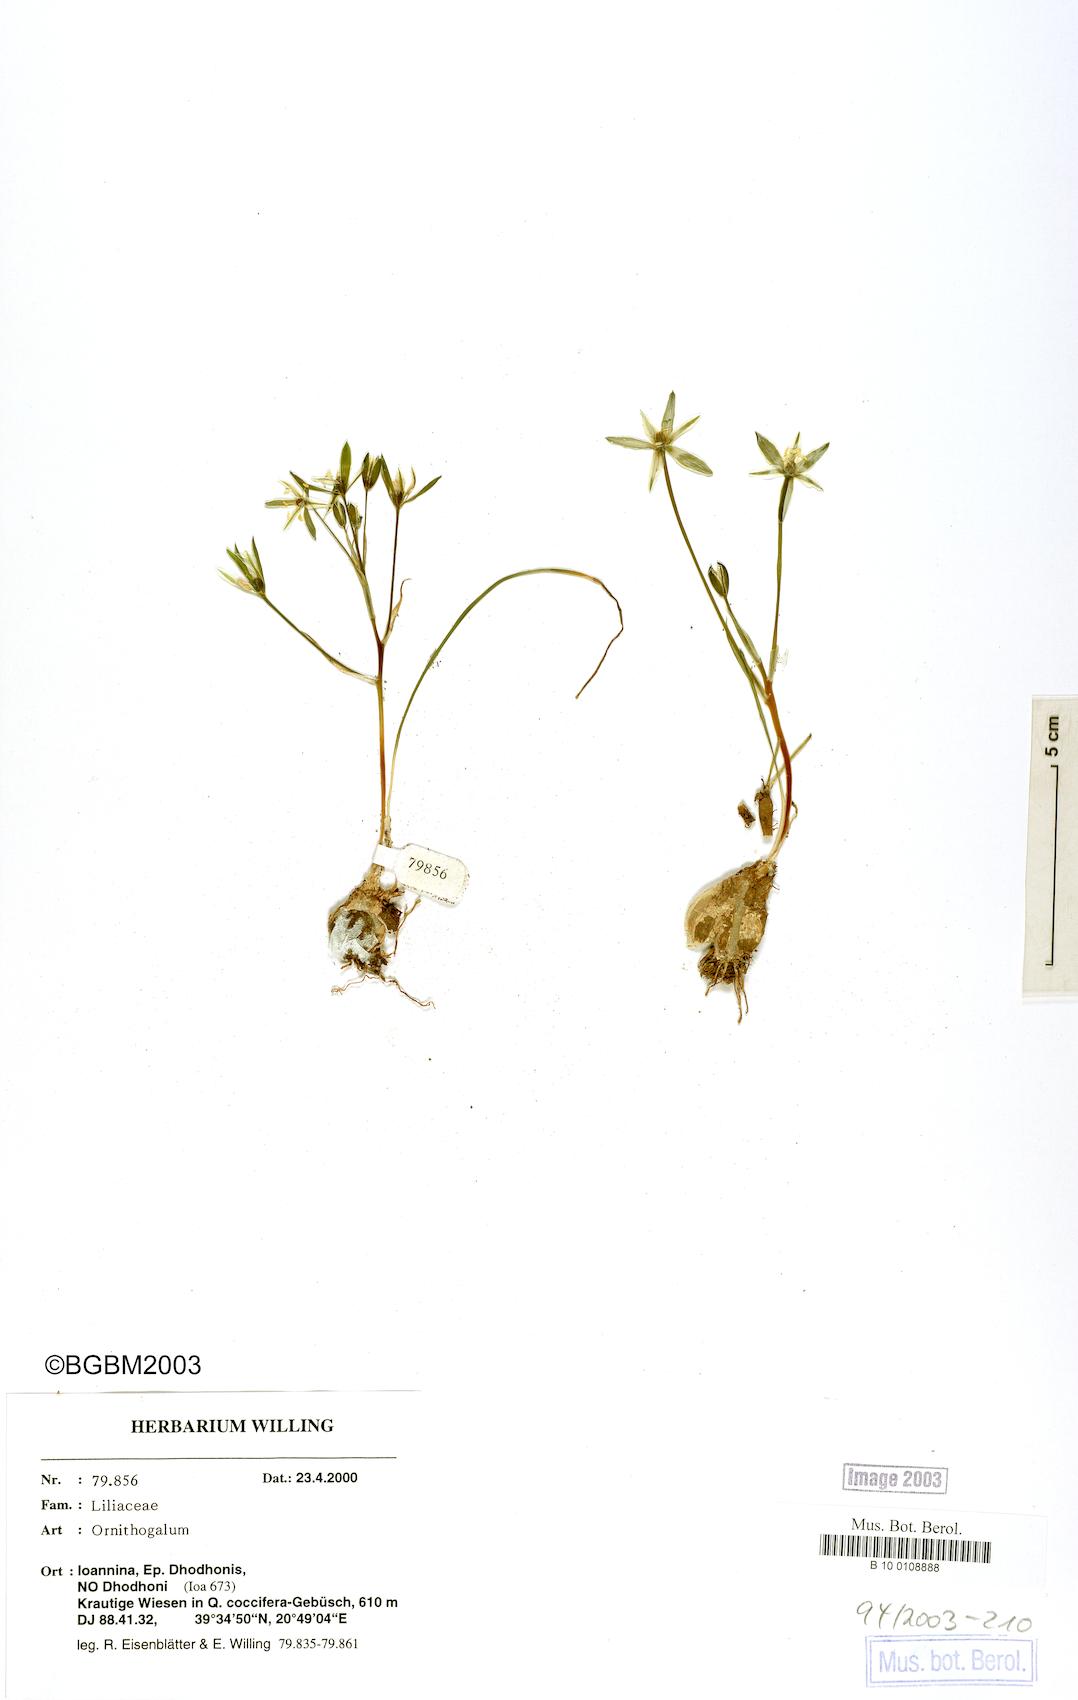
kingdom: Plantae
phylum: Tracheophyta
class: Liliopsida
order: Asparagales
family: Asparagaceae
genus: Ornithogalum
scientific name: Ornithogalum
